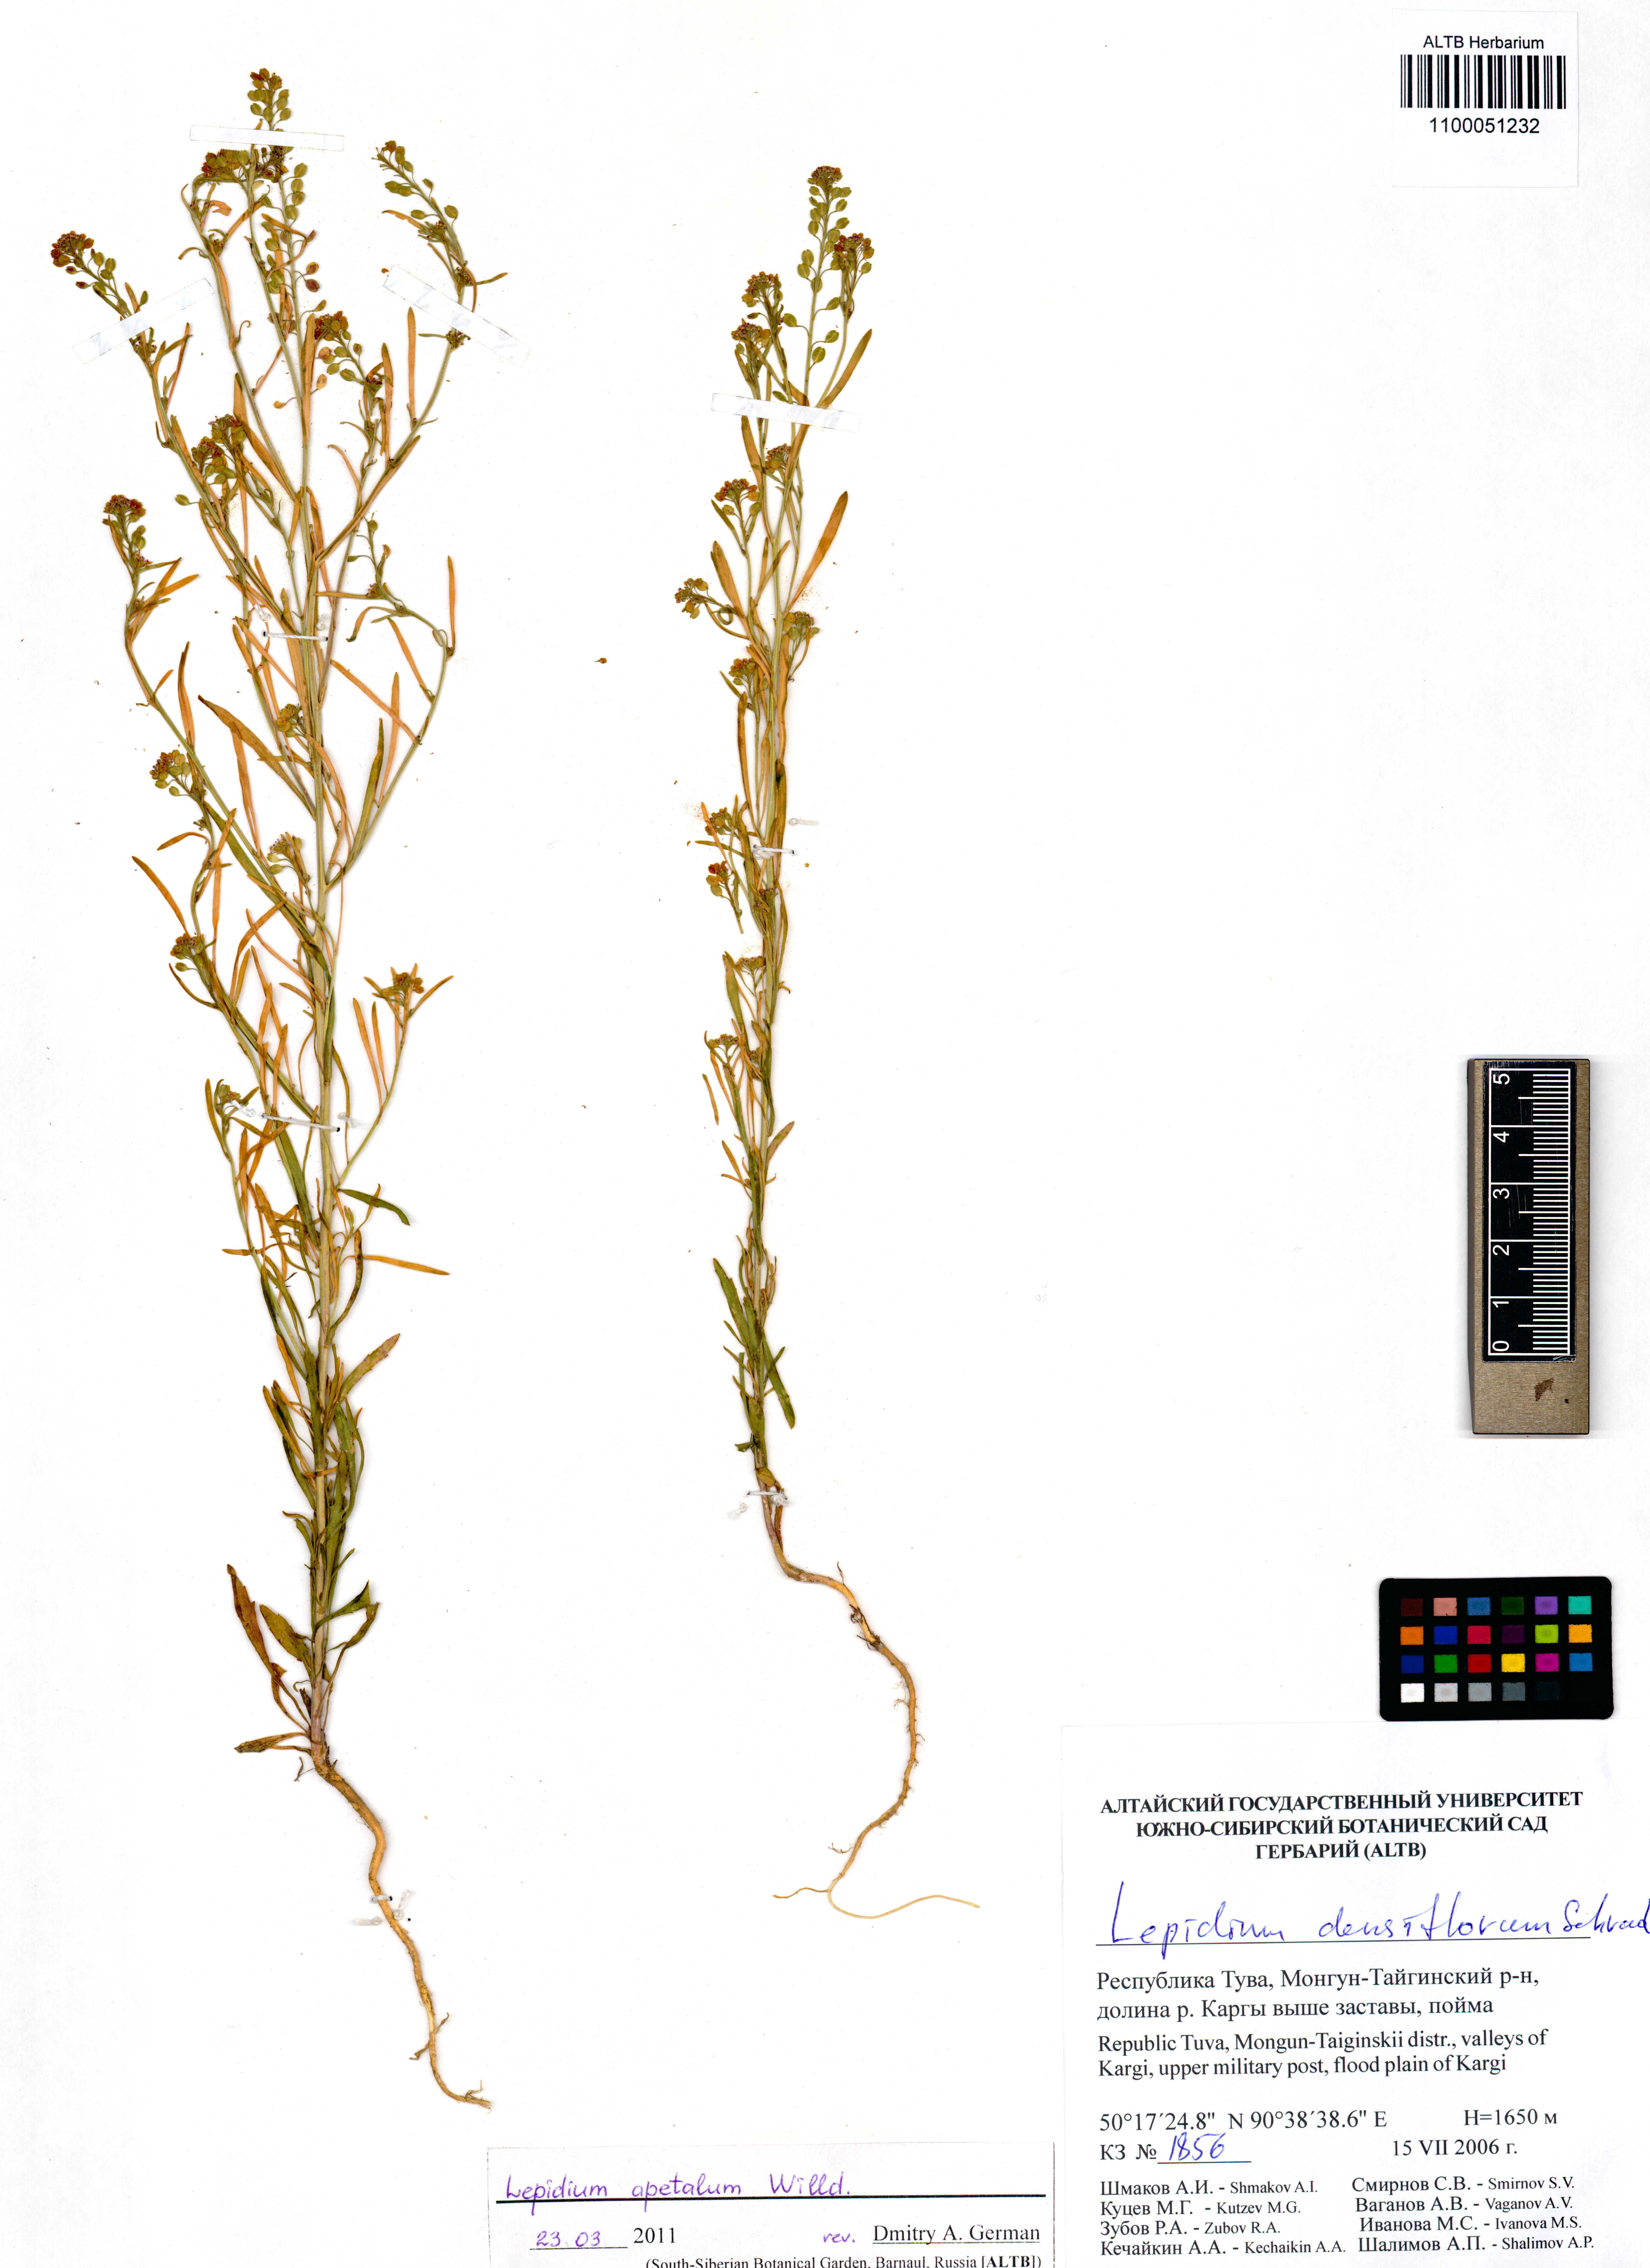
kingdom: Plantae
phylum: Tracheophyta
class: Magnoliopsida
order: Brassicales
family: Brassicaceae
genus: Lepidium
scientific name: Lepidium apetalum
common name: Pepperweed
